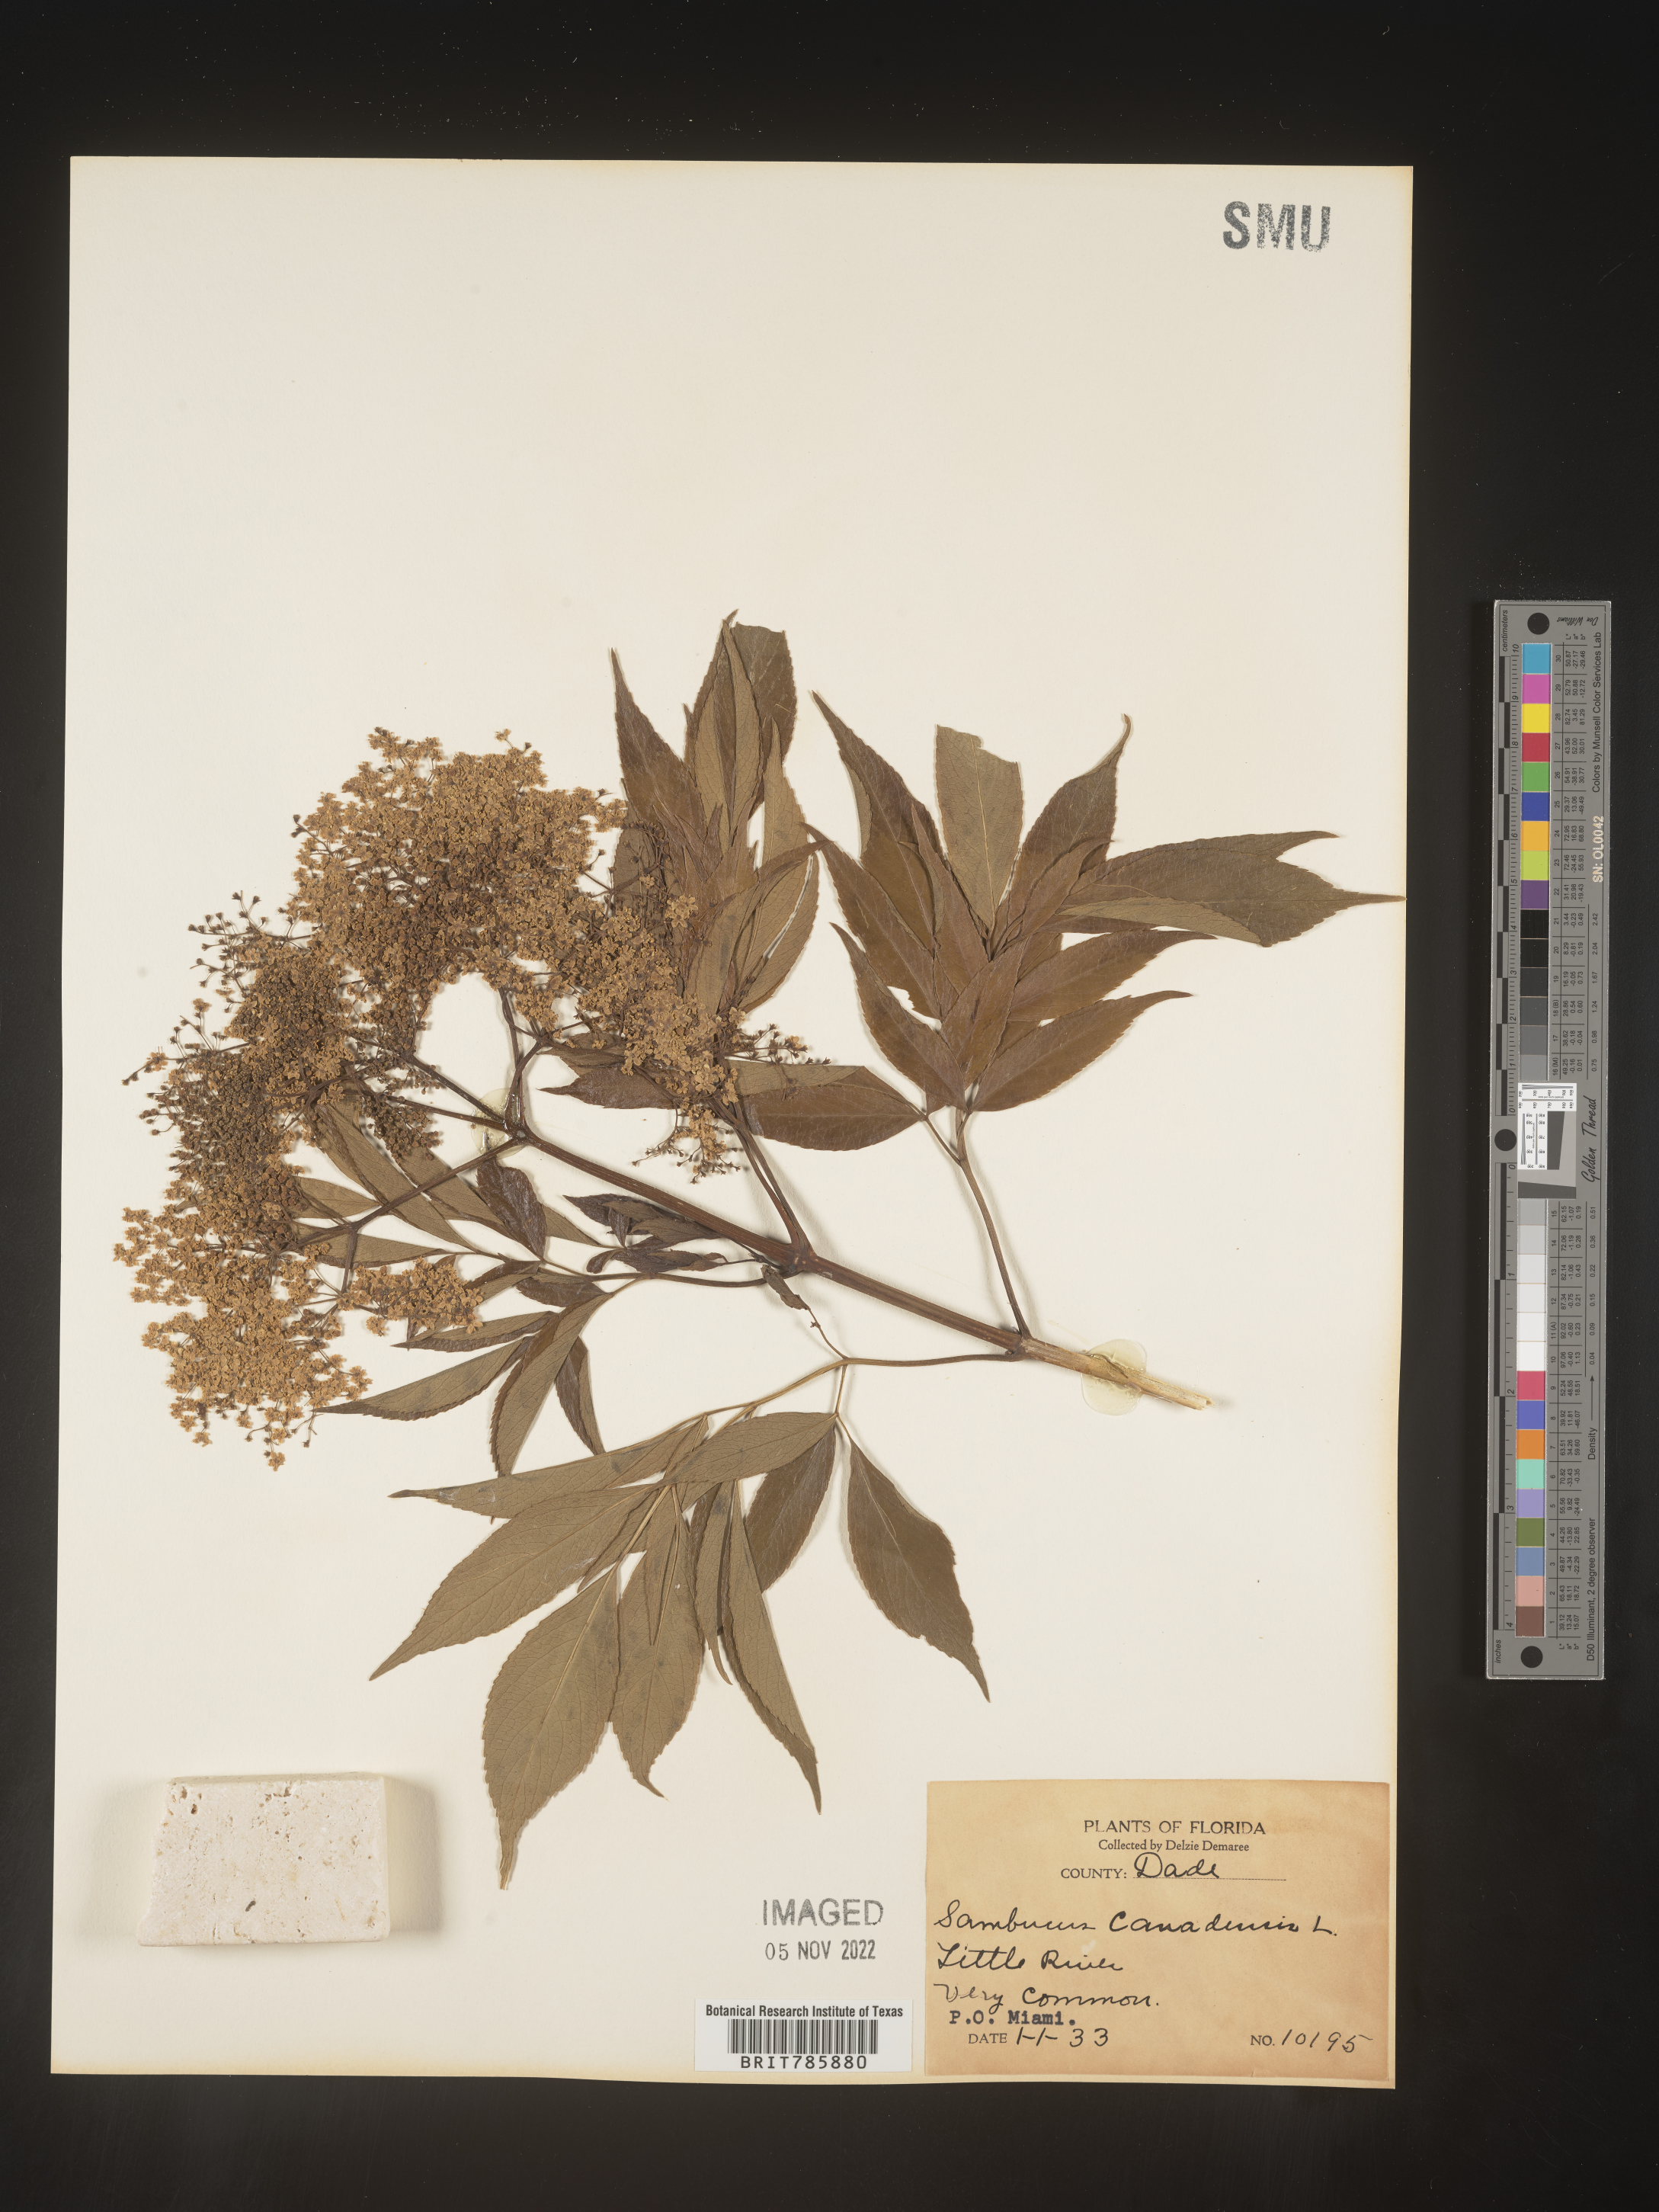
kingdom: Plantae
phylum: Tracheophyta
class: Magnoliopsida
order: Dipsacales
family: Viburnaceae
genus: Sambucus
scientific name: Sambucus nigra
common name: Elder
